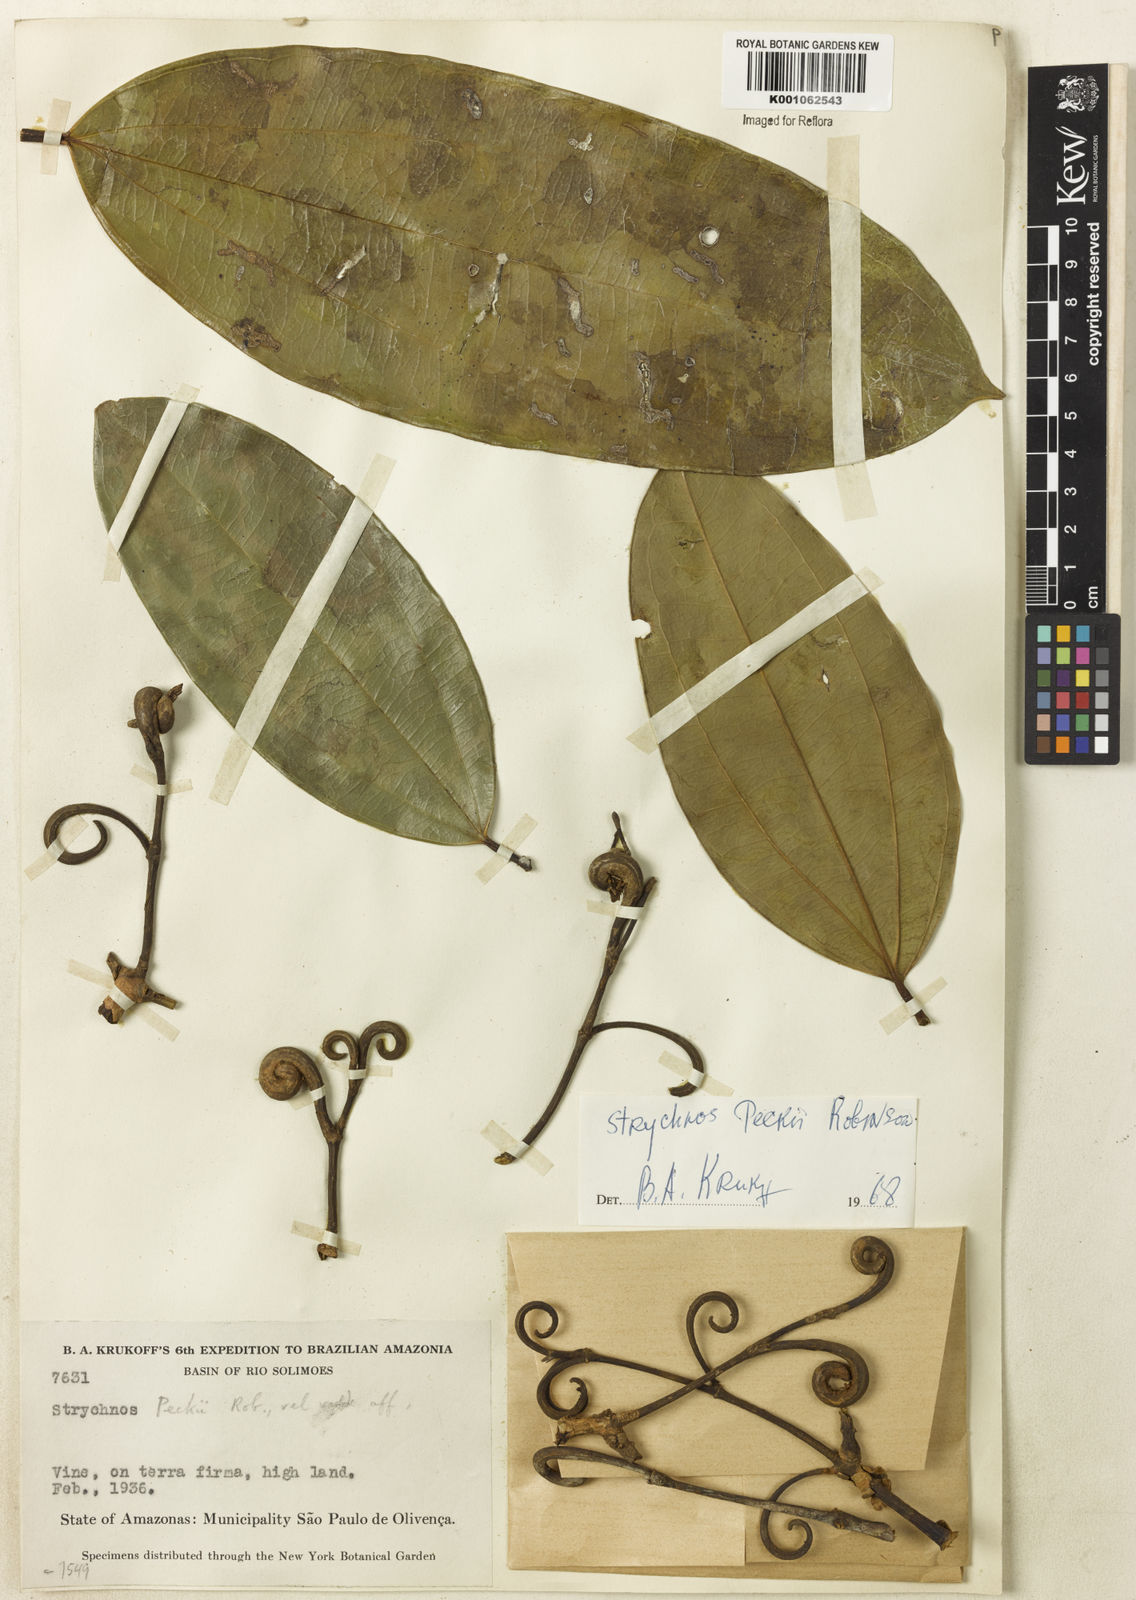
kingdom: Plantae
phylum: Tracheophyta
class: Magnoliopsida
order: Gentianales
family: Loganiaceae
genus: Strychnos
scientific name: Strychnos peckii
